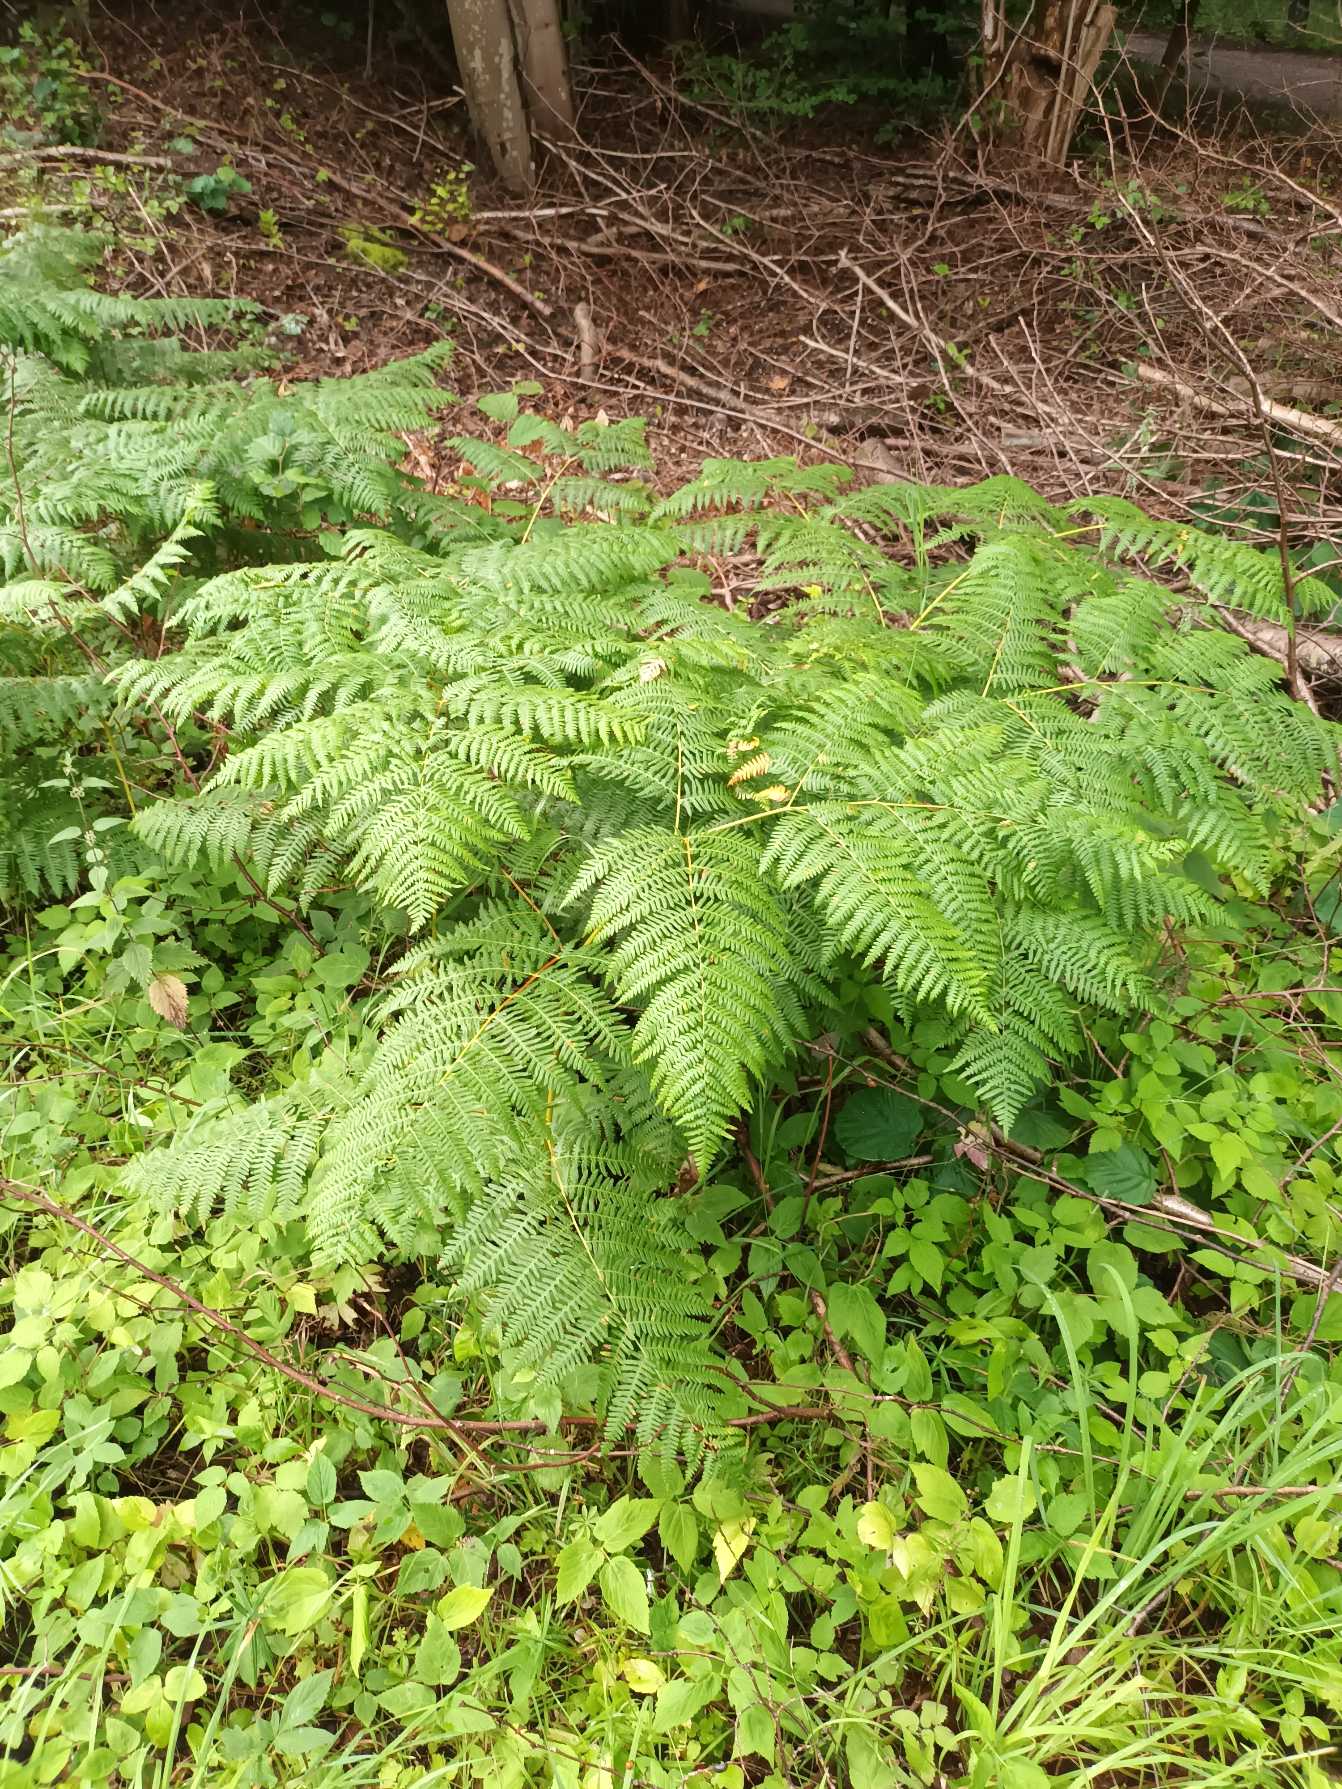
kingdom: Plantae
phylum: Tracheophyta
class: Polypodiopsida
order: Polypodiales
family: Dennstaedtiaceae
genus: Pteridium
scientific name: Pteridium aquilinum
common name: Ørnebregne
